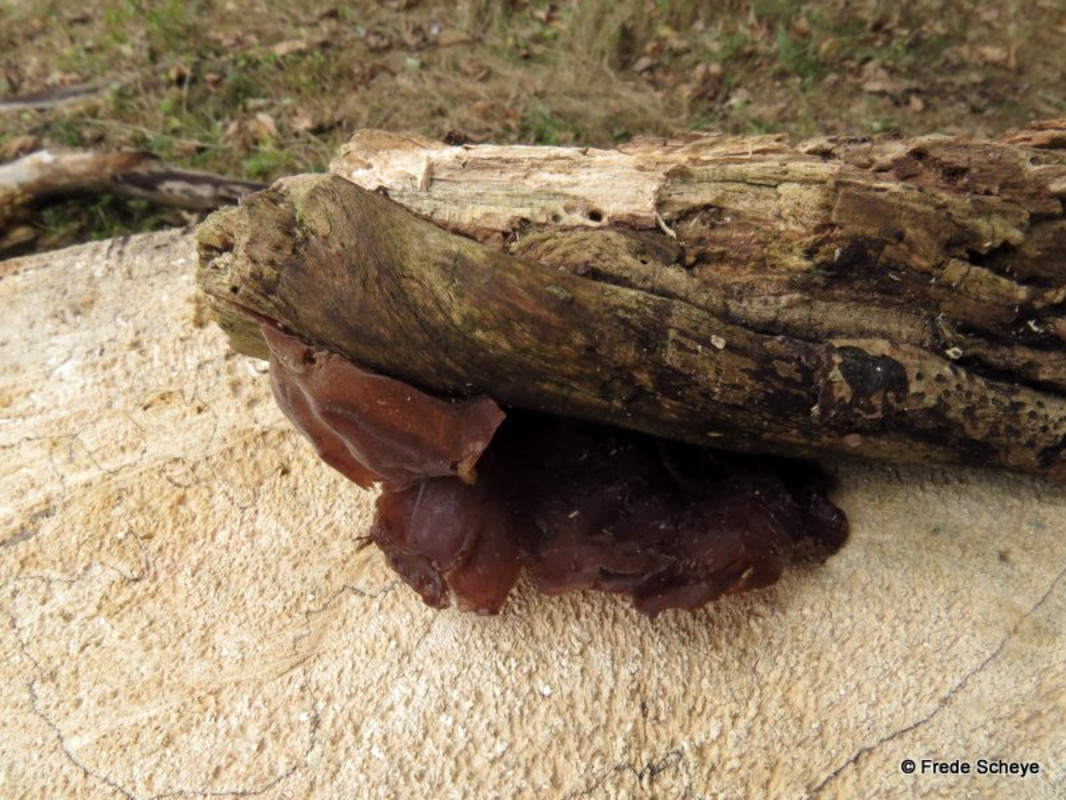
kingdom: Fungi
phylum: Basidiomycota
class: Agaricomycetes
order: Auriculariales
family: Auriculariaceae
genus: Auricularia
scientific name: Auricularia auricula-judae
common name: almindelig judasøre
